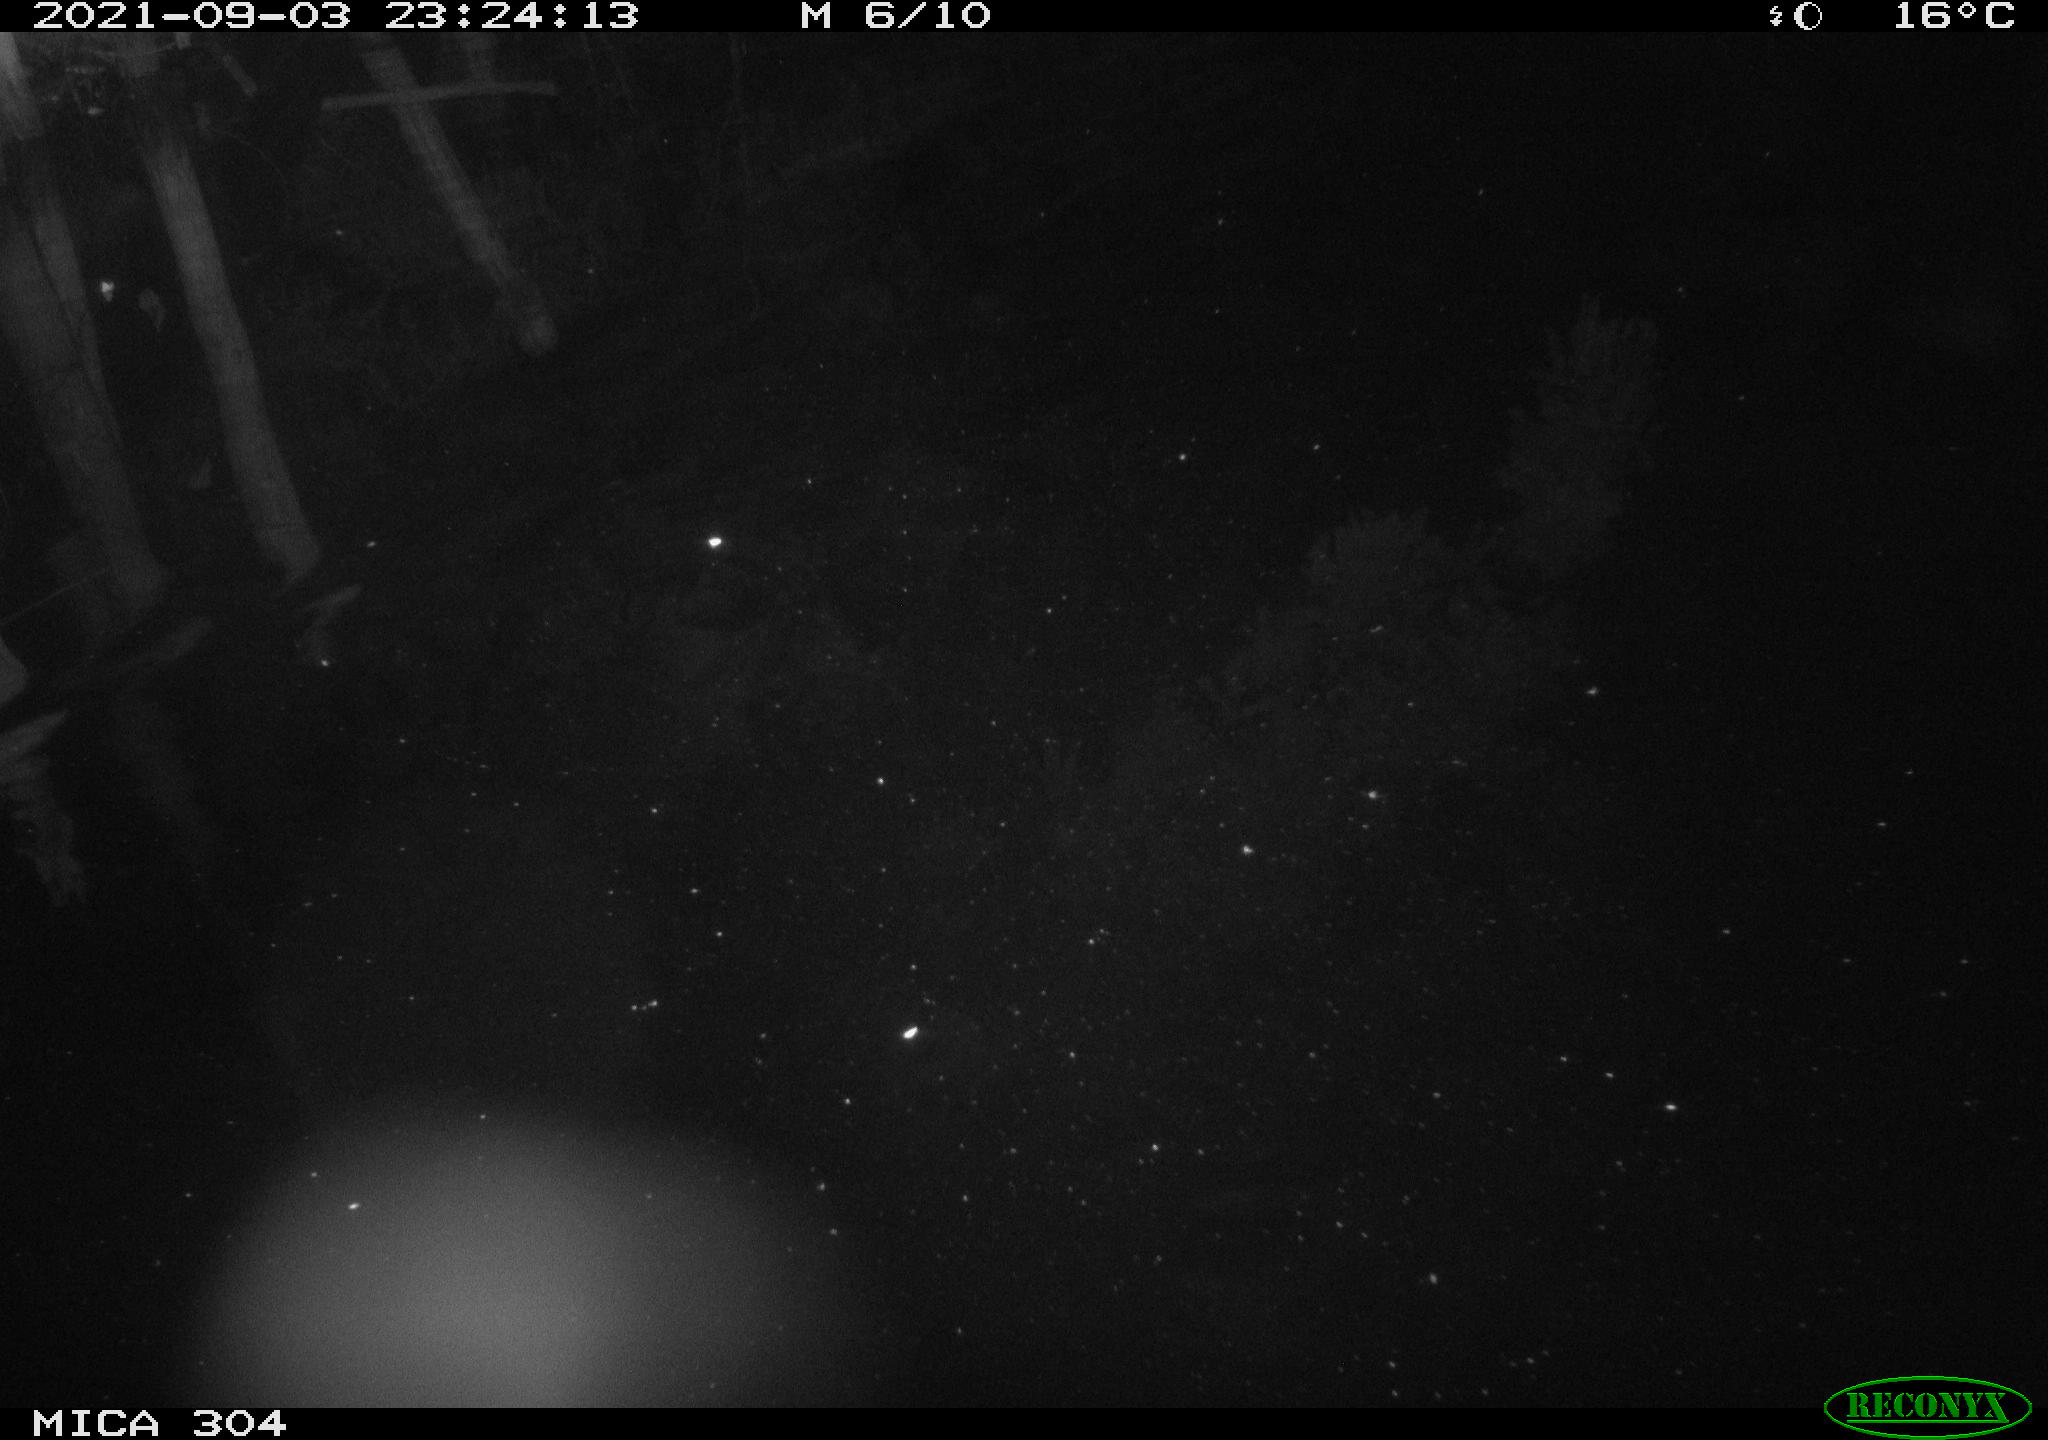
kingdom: Animalia
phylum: Chordata
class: Mammalia
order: Rodentia
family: Muridae
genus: Rattus
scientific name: Rattus norvegicus
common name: Brown rat
